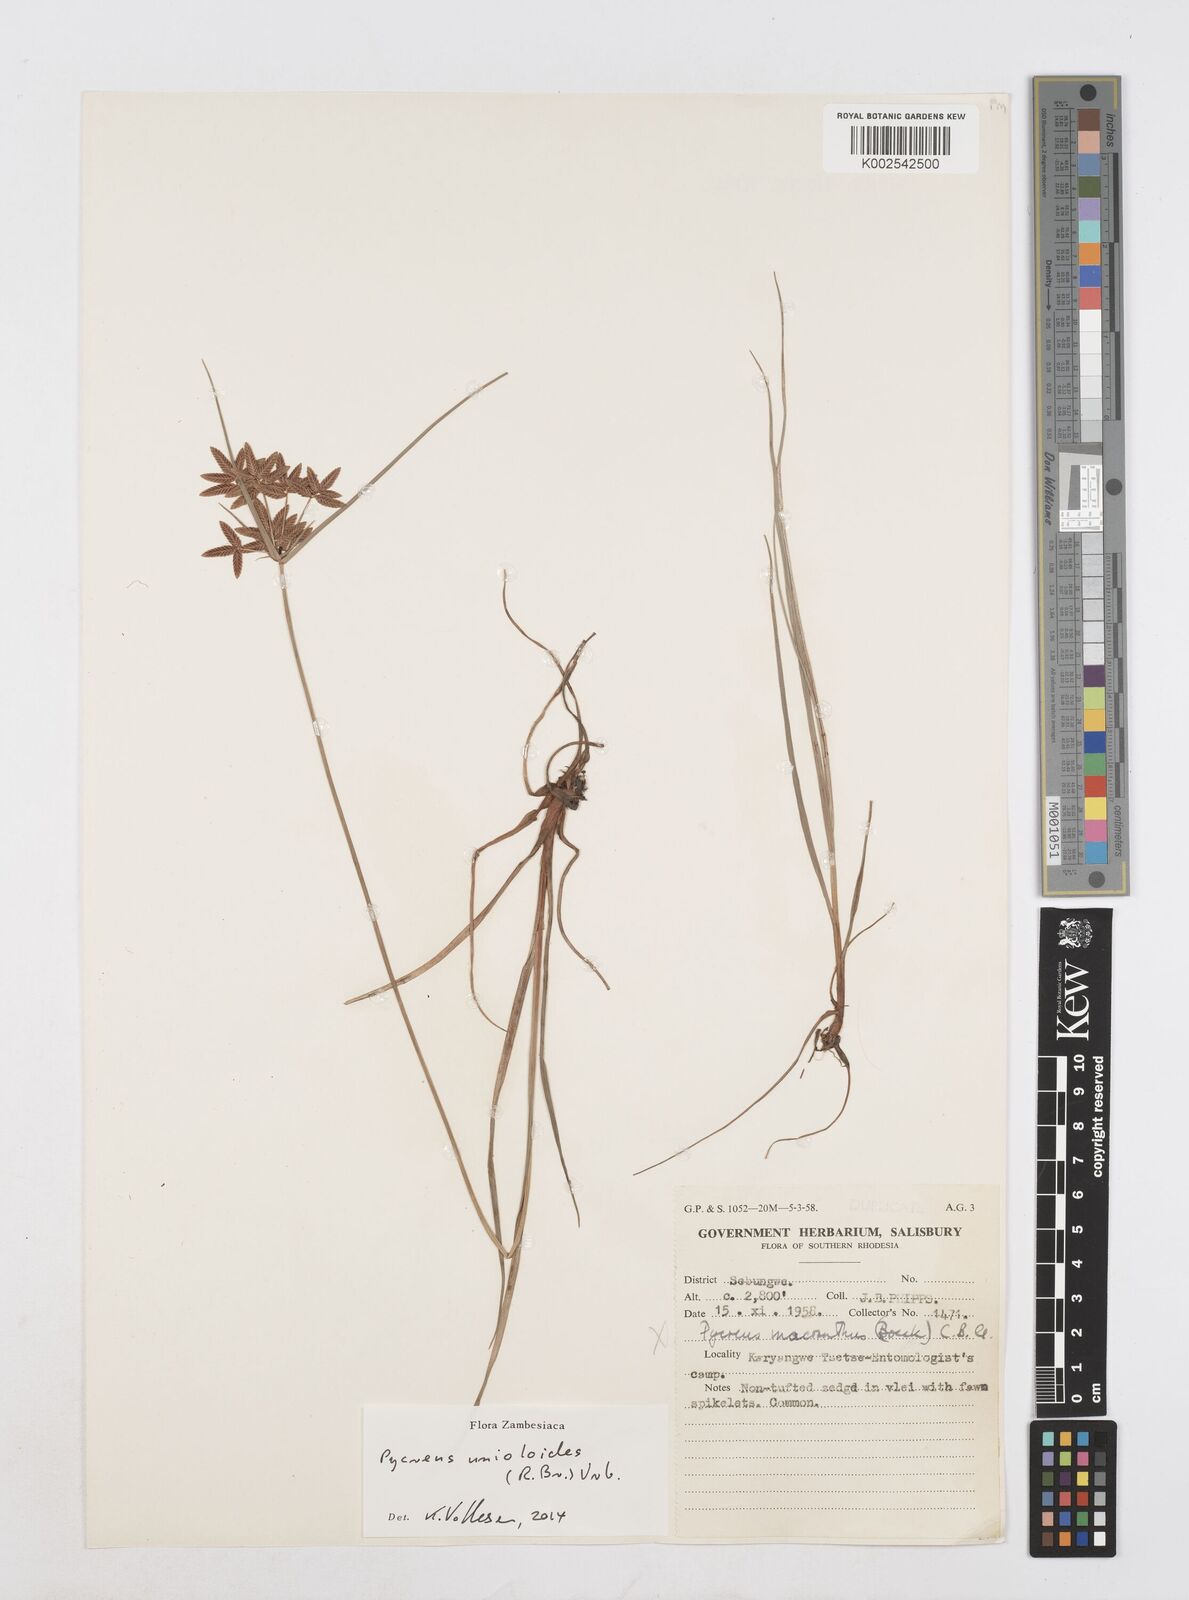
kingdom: Plantae
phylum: Tracheophyta
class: Liliopsida
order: Poales
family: Cyperaceae
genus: Cyperus
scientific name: Cyperus unioloides
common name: Uniola flatsedge
